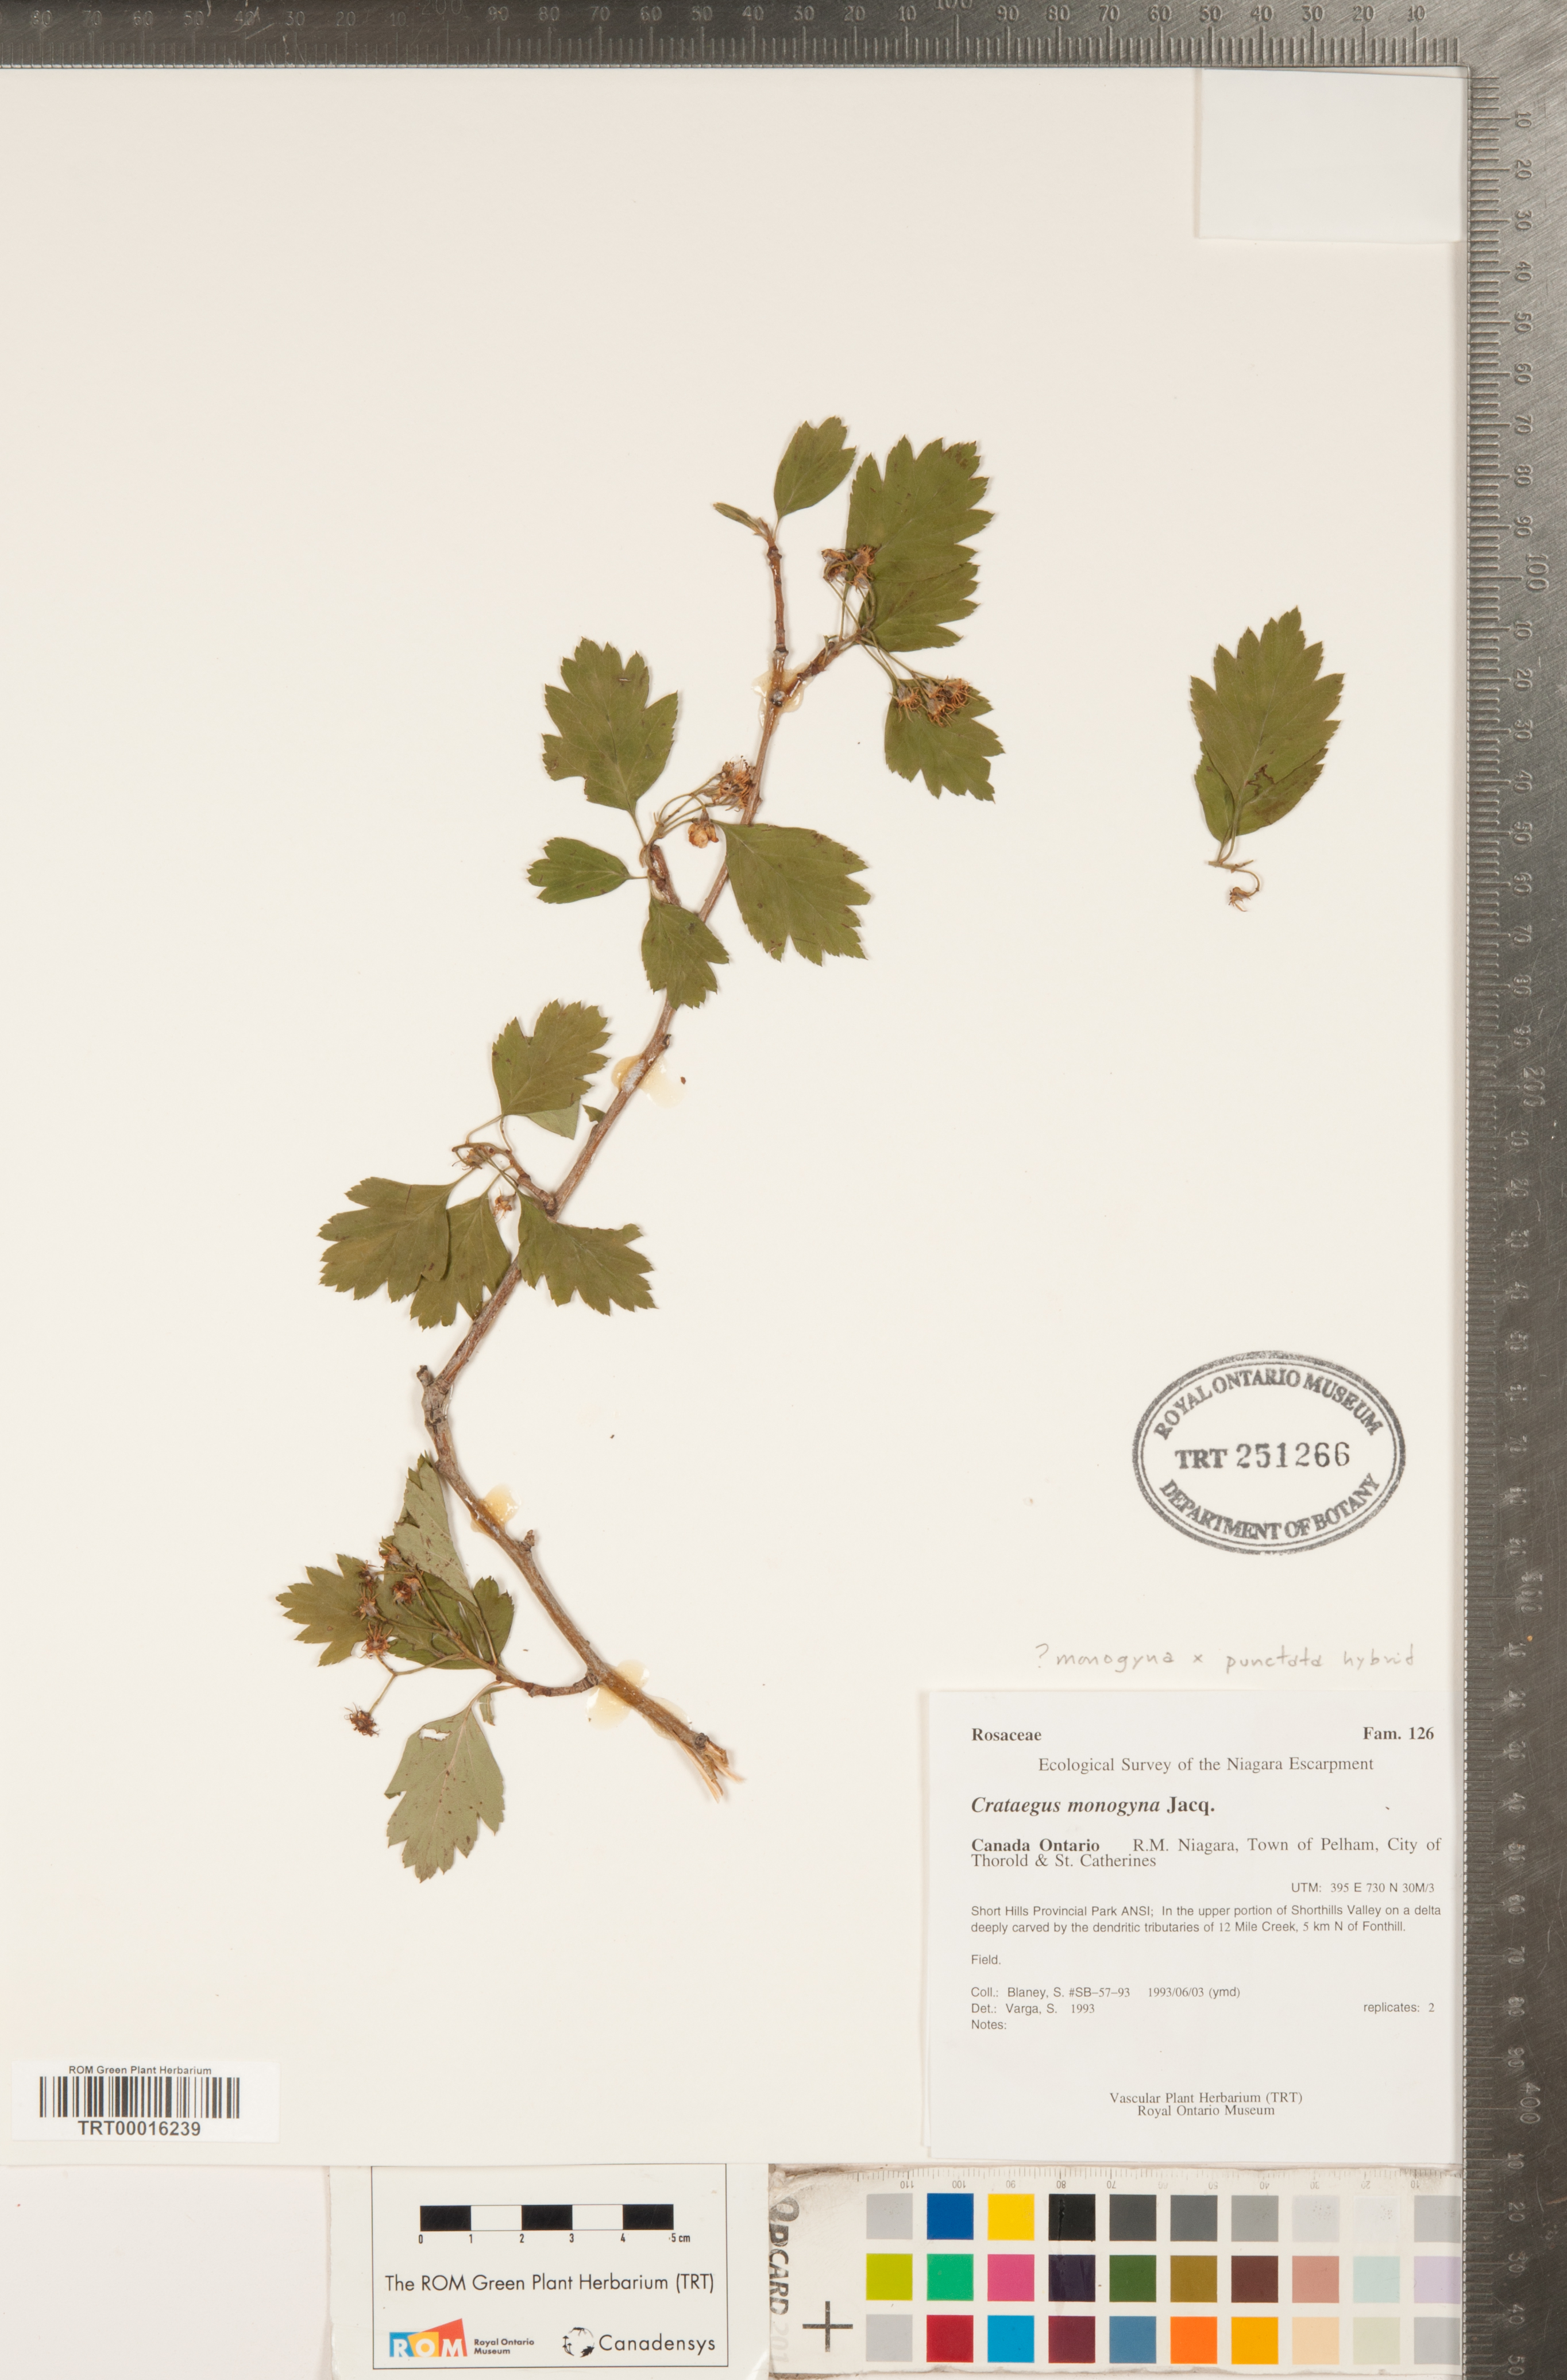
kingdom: Plantae
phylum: Tracheophyta
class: Magnoliopsida
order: Rosales
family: Rosaceae
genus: Crataegus
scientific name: Crataegus
